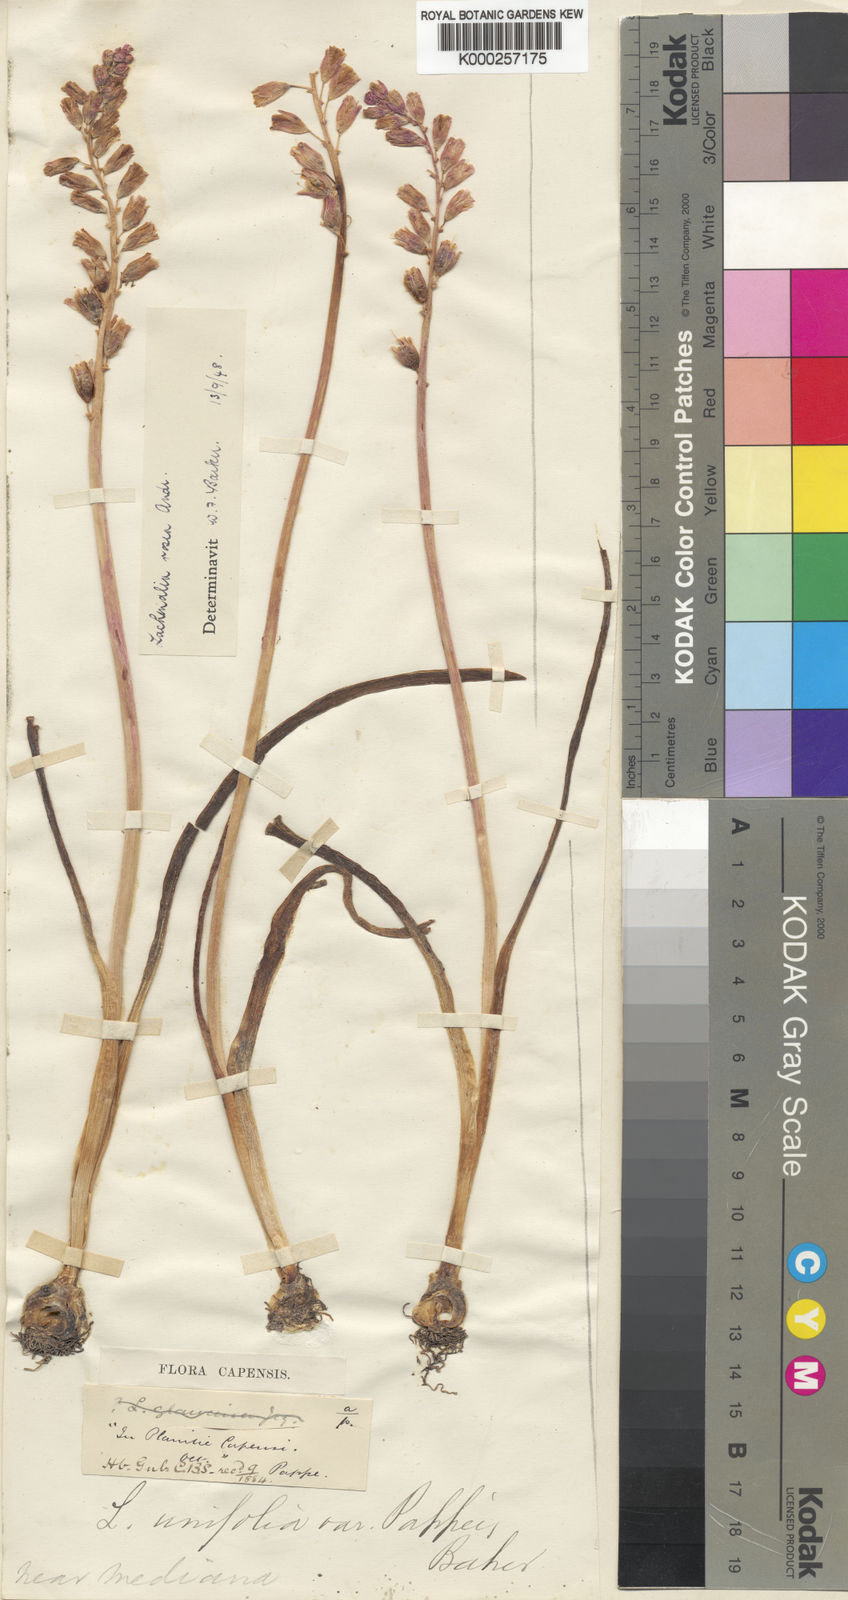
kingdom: Plantae
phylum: Tracheophyta
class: Liliopsida
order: Asparagales
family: Asparagaceae
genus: Lachenalia
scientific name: Lachenalia unifolia
